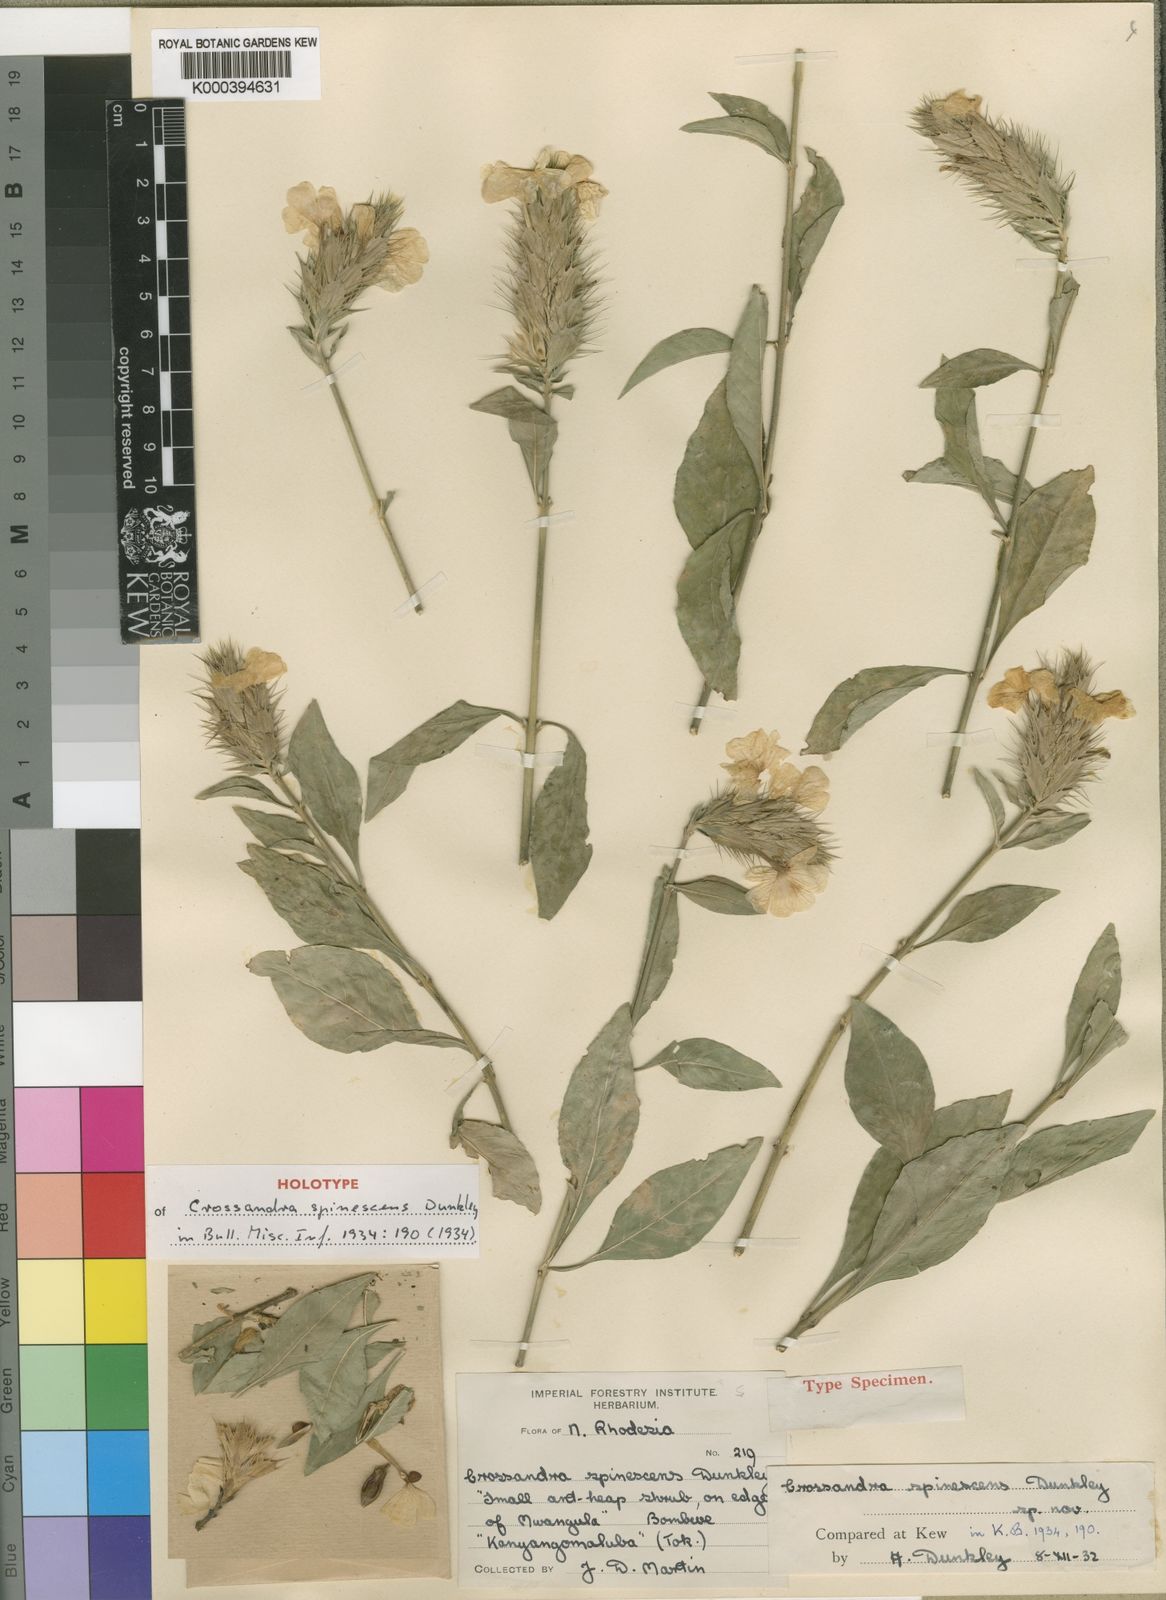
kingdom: Plantae
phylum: Tracheophyta
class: Magnoliopsida
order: Lamiales
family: Acanthaceae
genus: Crossandra
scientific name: Crossandra spinescens
